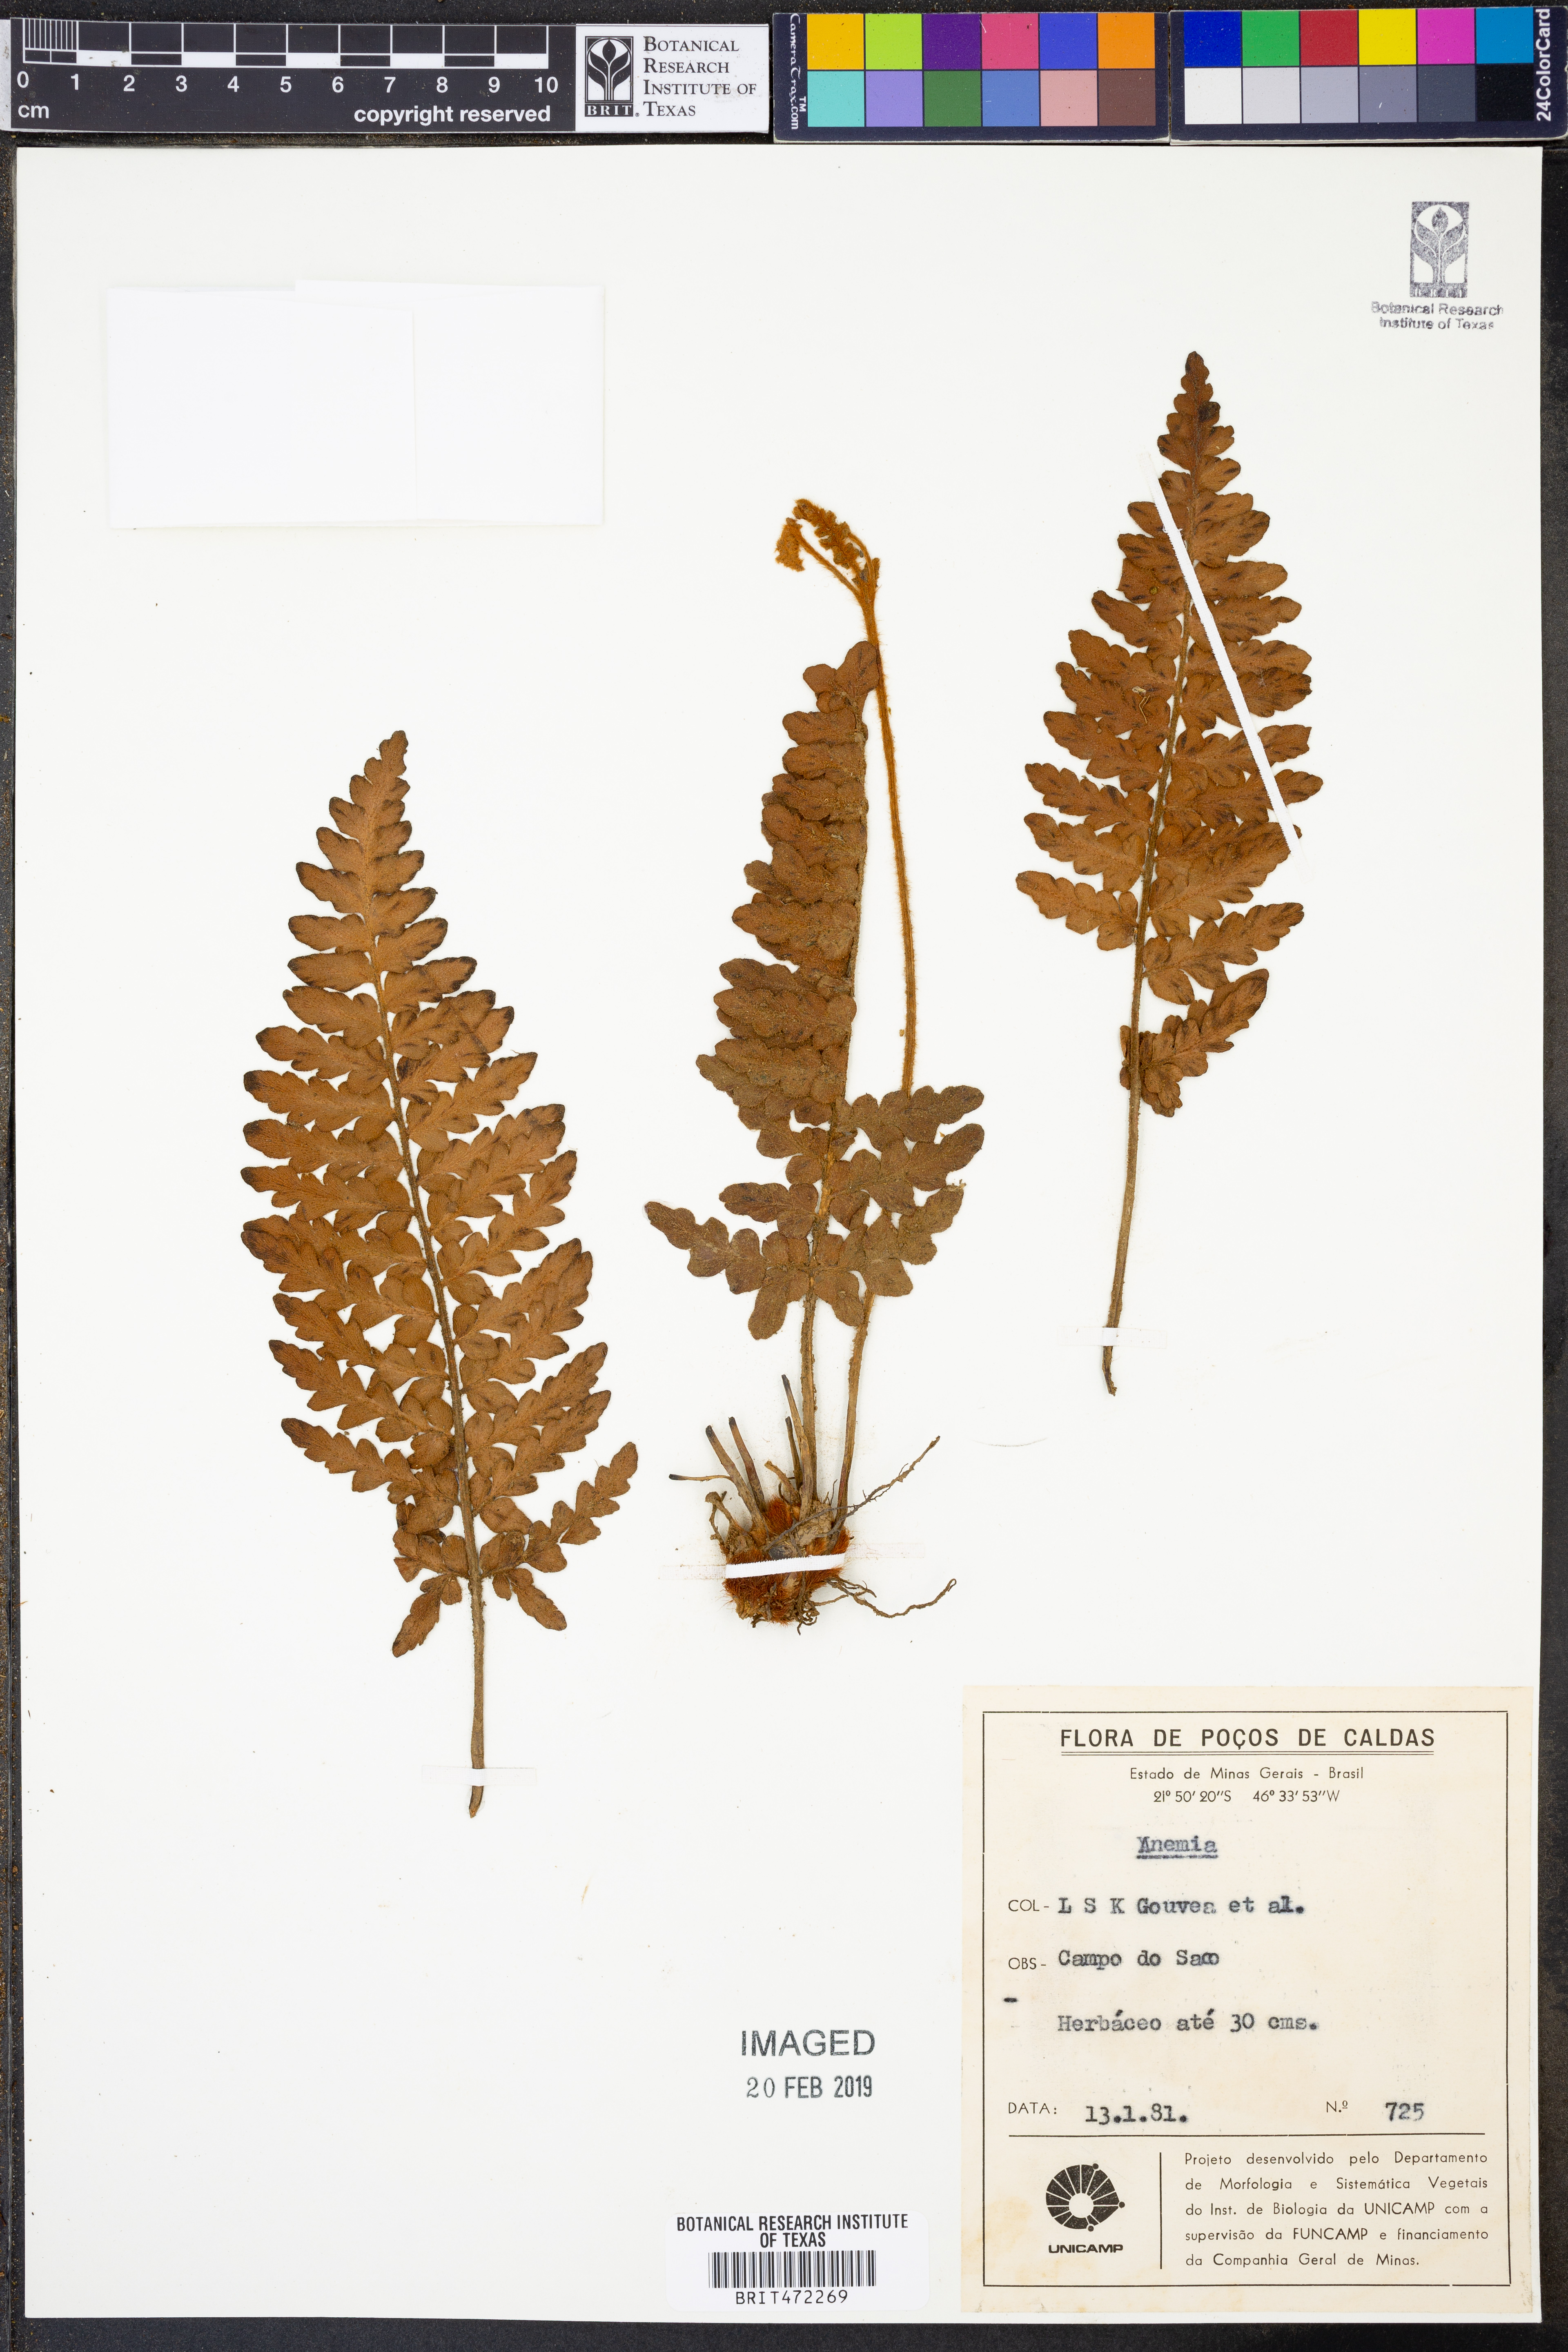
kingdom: Plantae
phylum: Tracheophyta
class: Polypodiopsida
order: Schizaeales
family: Anemiaceae
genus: Anemia
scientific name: Anemia
